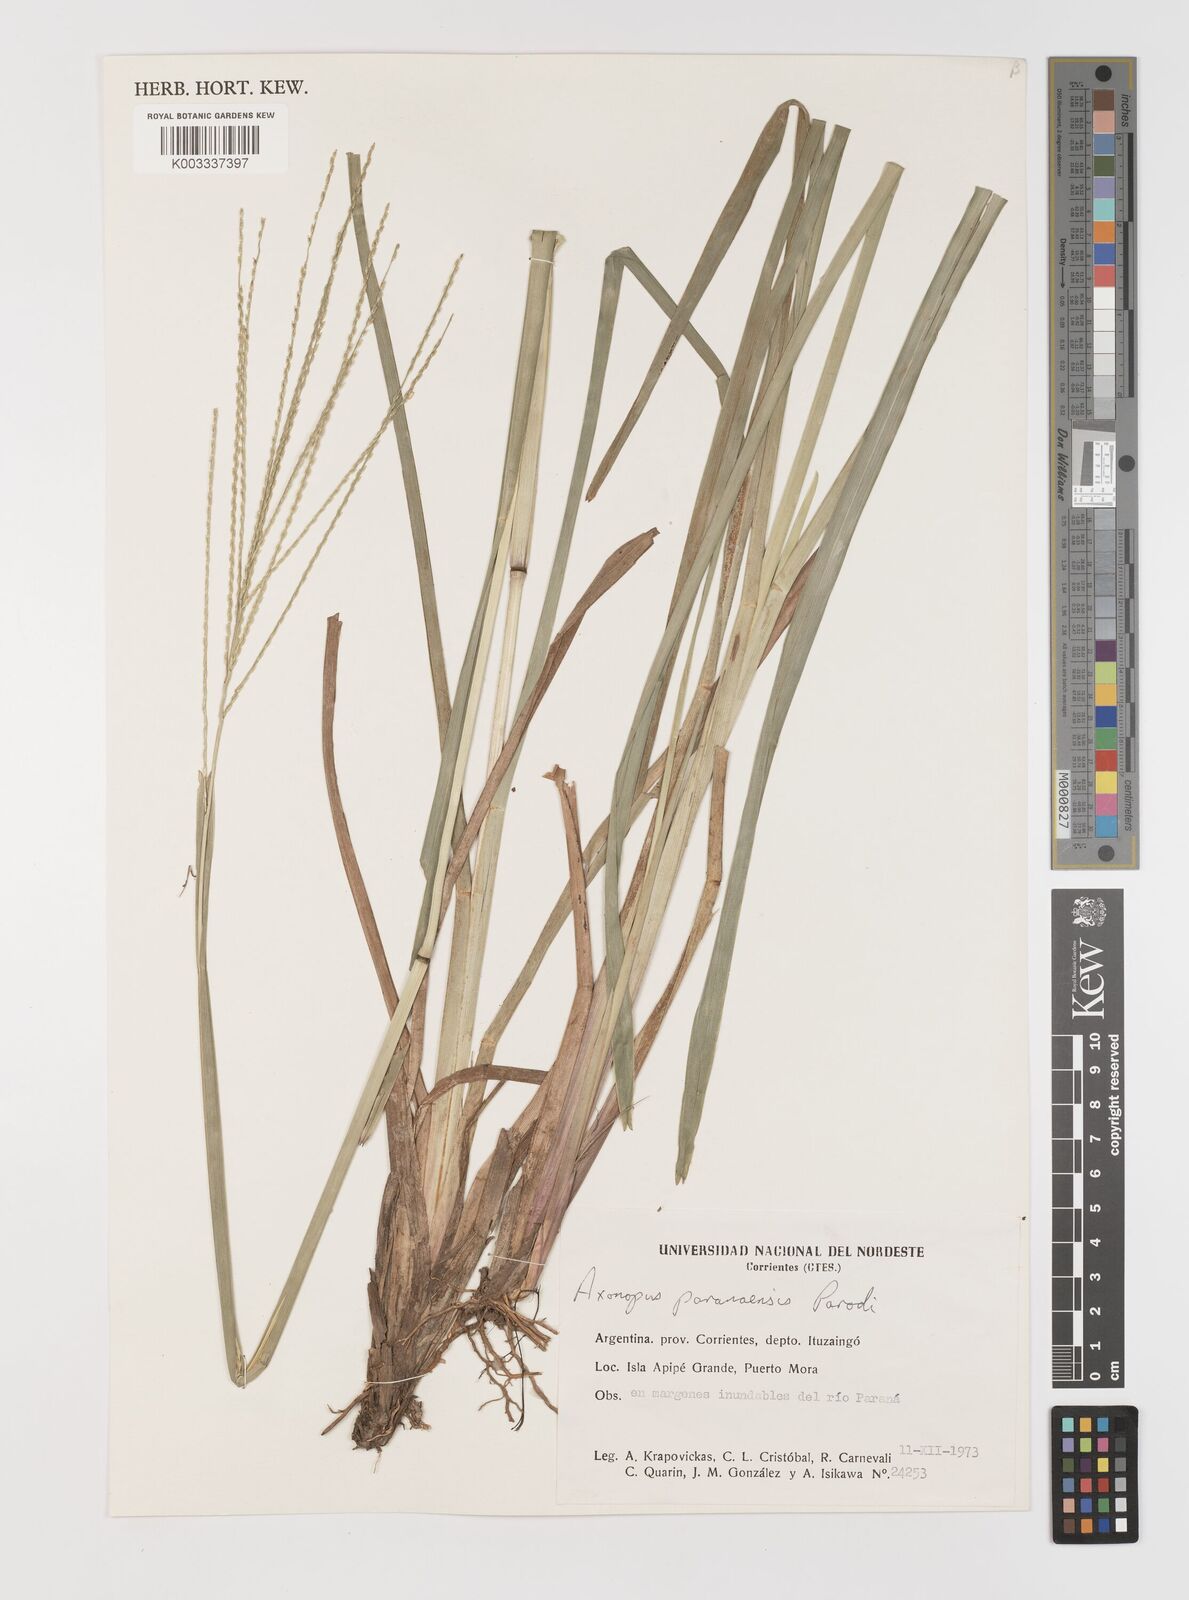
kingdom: Plantae
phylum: Tracheophyta
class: Liliopsida
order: Poales
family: Poaceae
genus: Axonopus
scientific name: Axonopus leptostachyus
